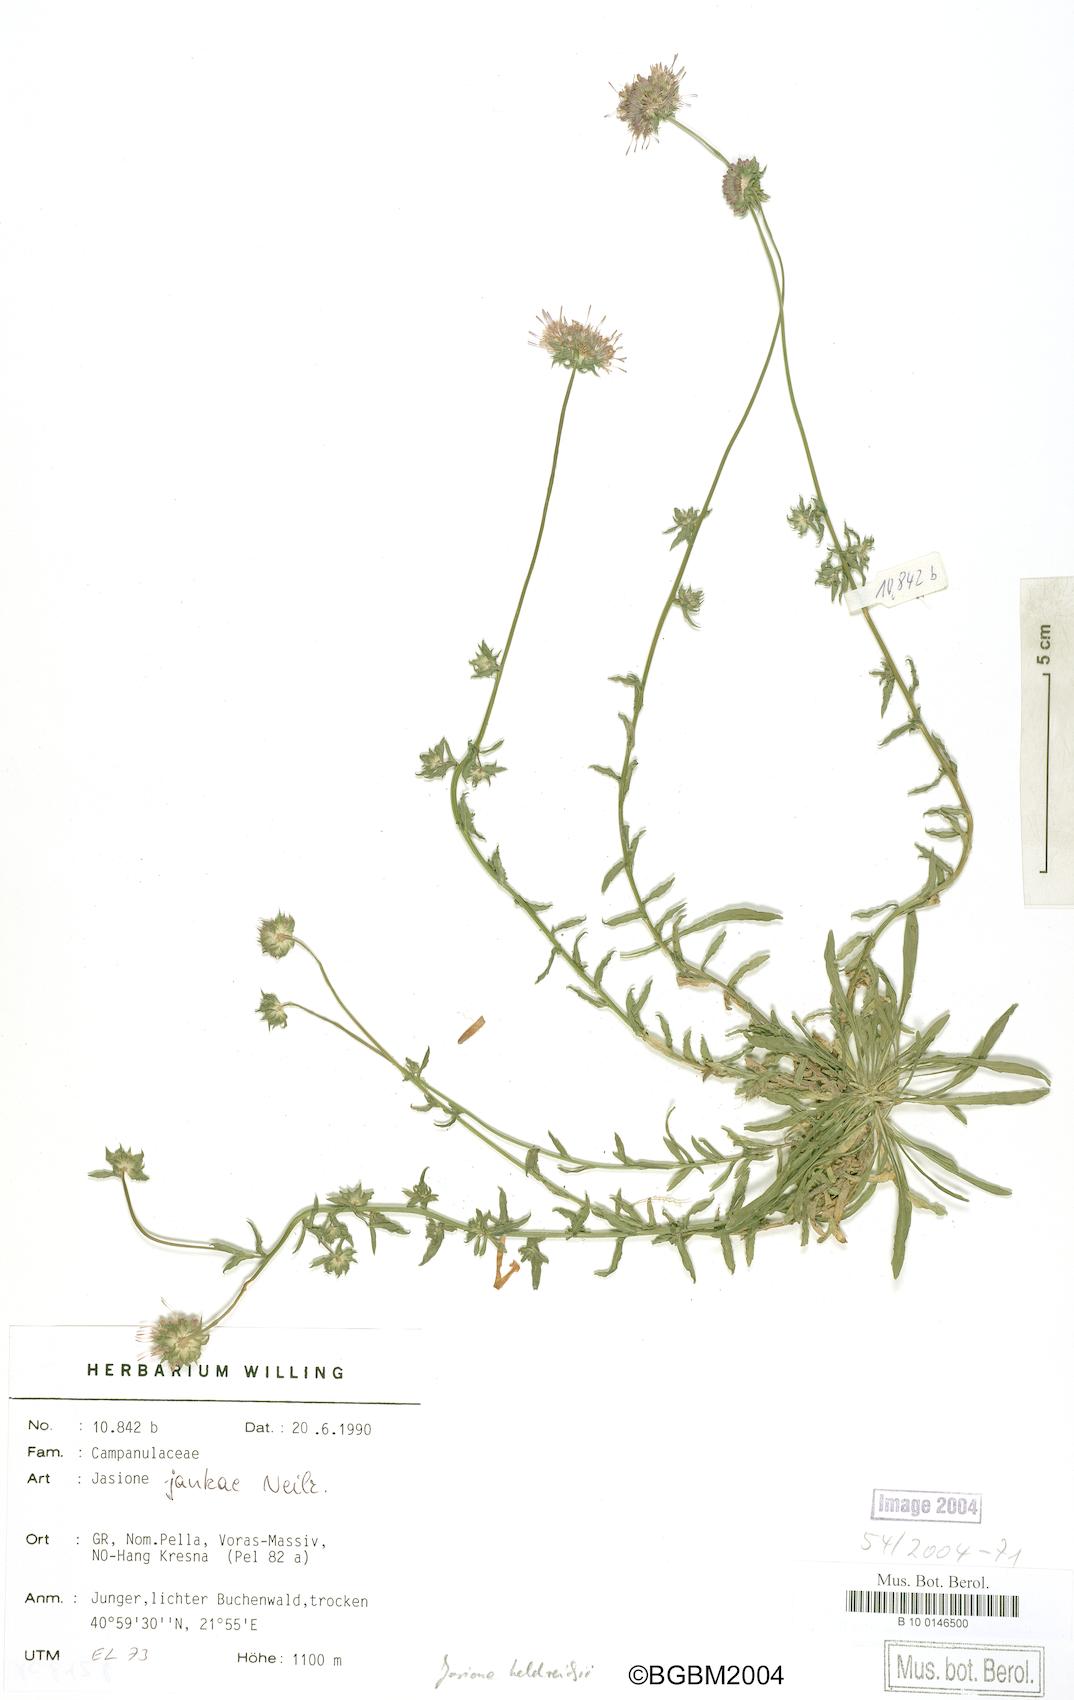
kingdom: Plantae
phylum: Tracheophyta
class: Magnoliopsida
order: Asterales
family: Campanulaceae
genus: Jasione
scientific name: Jasione heldreichii
